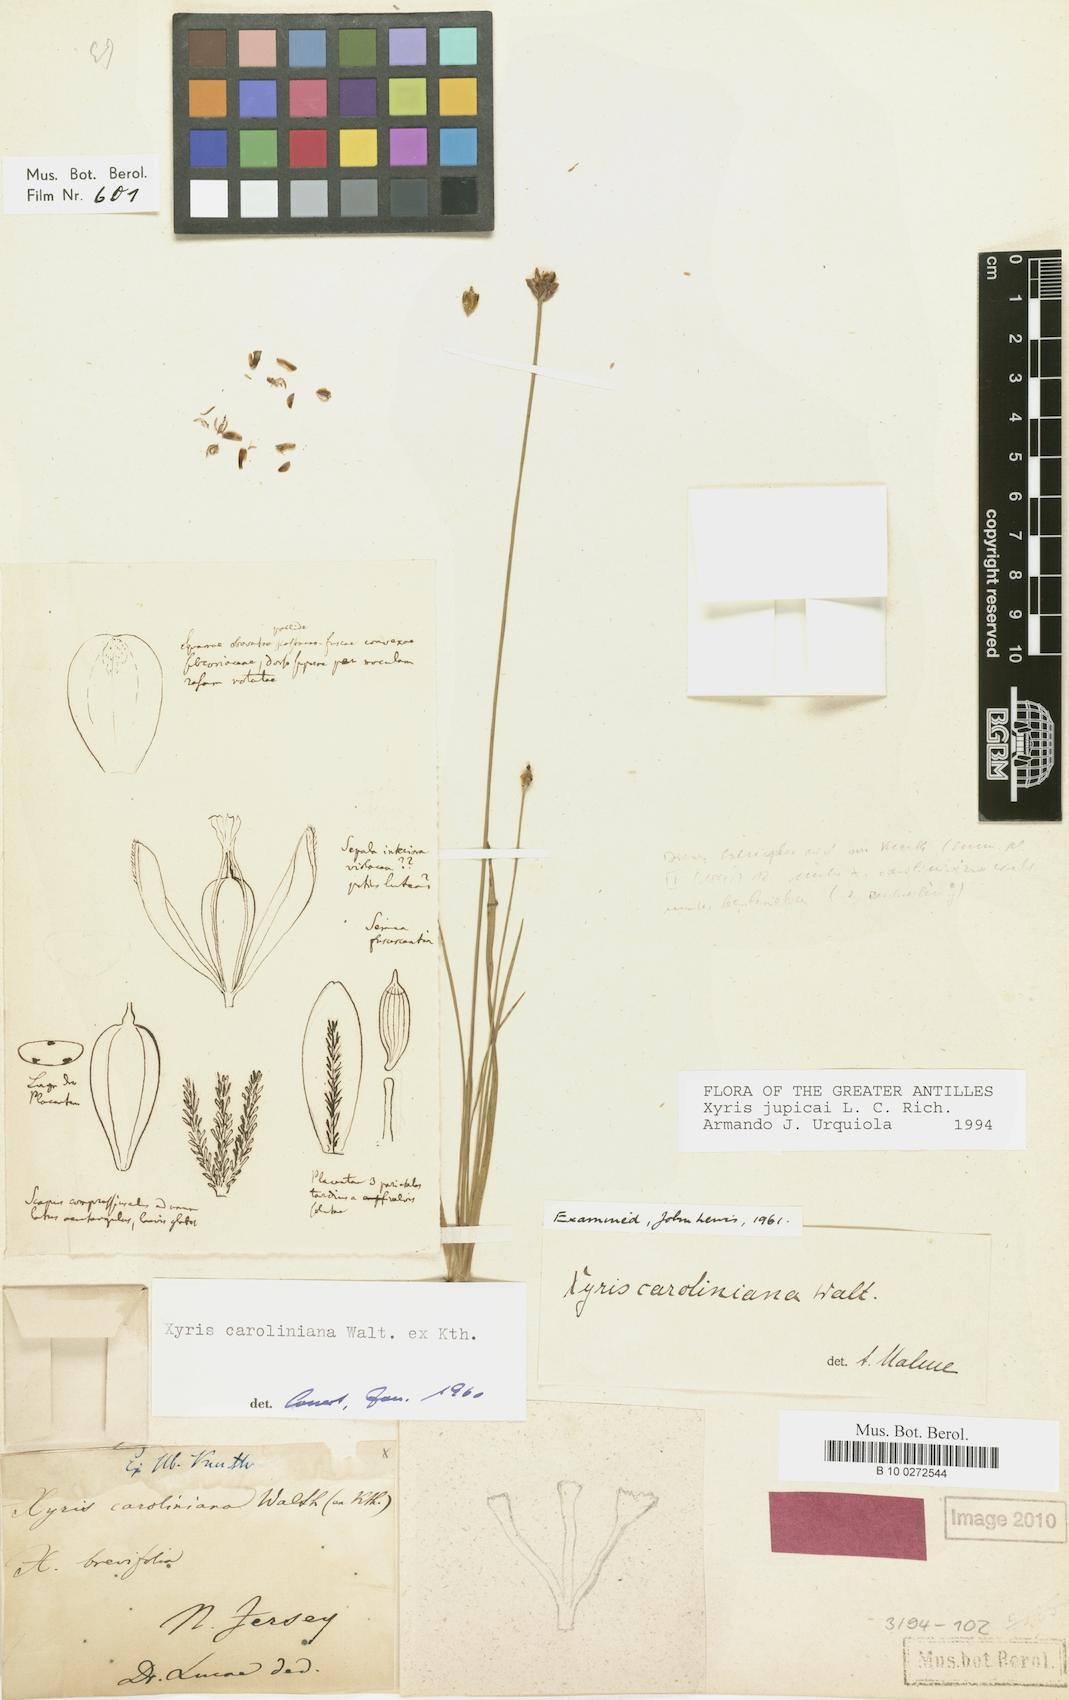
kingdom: Plantae
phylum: Tracheophyta
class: Liliopsida
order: Poales
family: Xyridaceae
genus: Xyris
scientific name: Xyris jupicai
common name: Richard's yelloweyed grass
